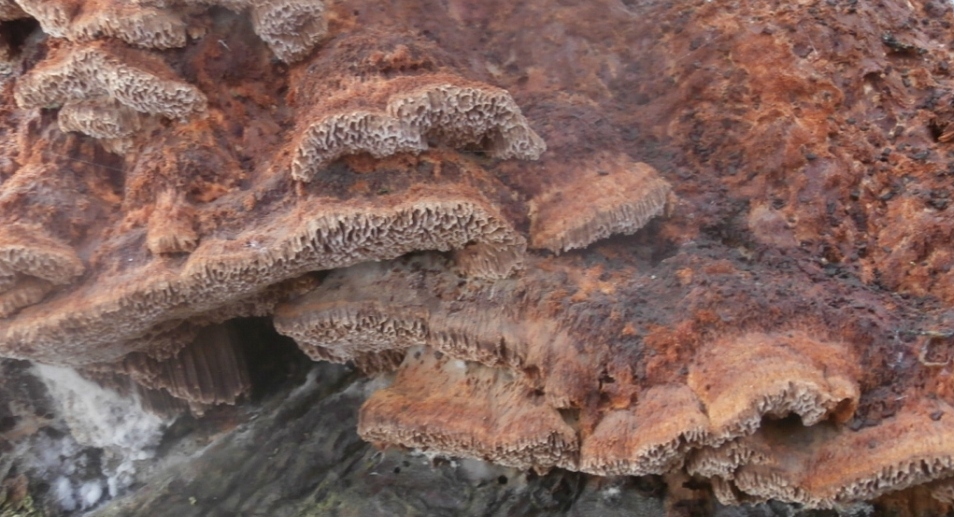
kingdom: Fungi
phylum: Basidiomycota
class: Agaricomycetes
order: Hymenochaetales
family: Hymenochaetaceae
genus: Mensularia
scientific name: Mensularia nodulosa
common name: bøge-spejlporesvamp
